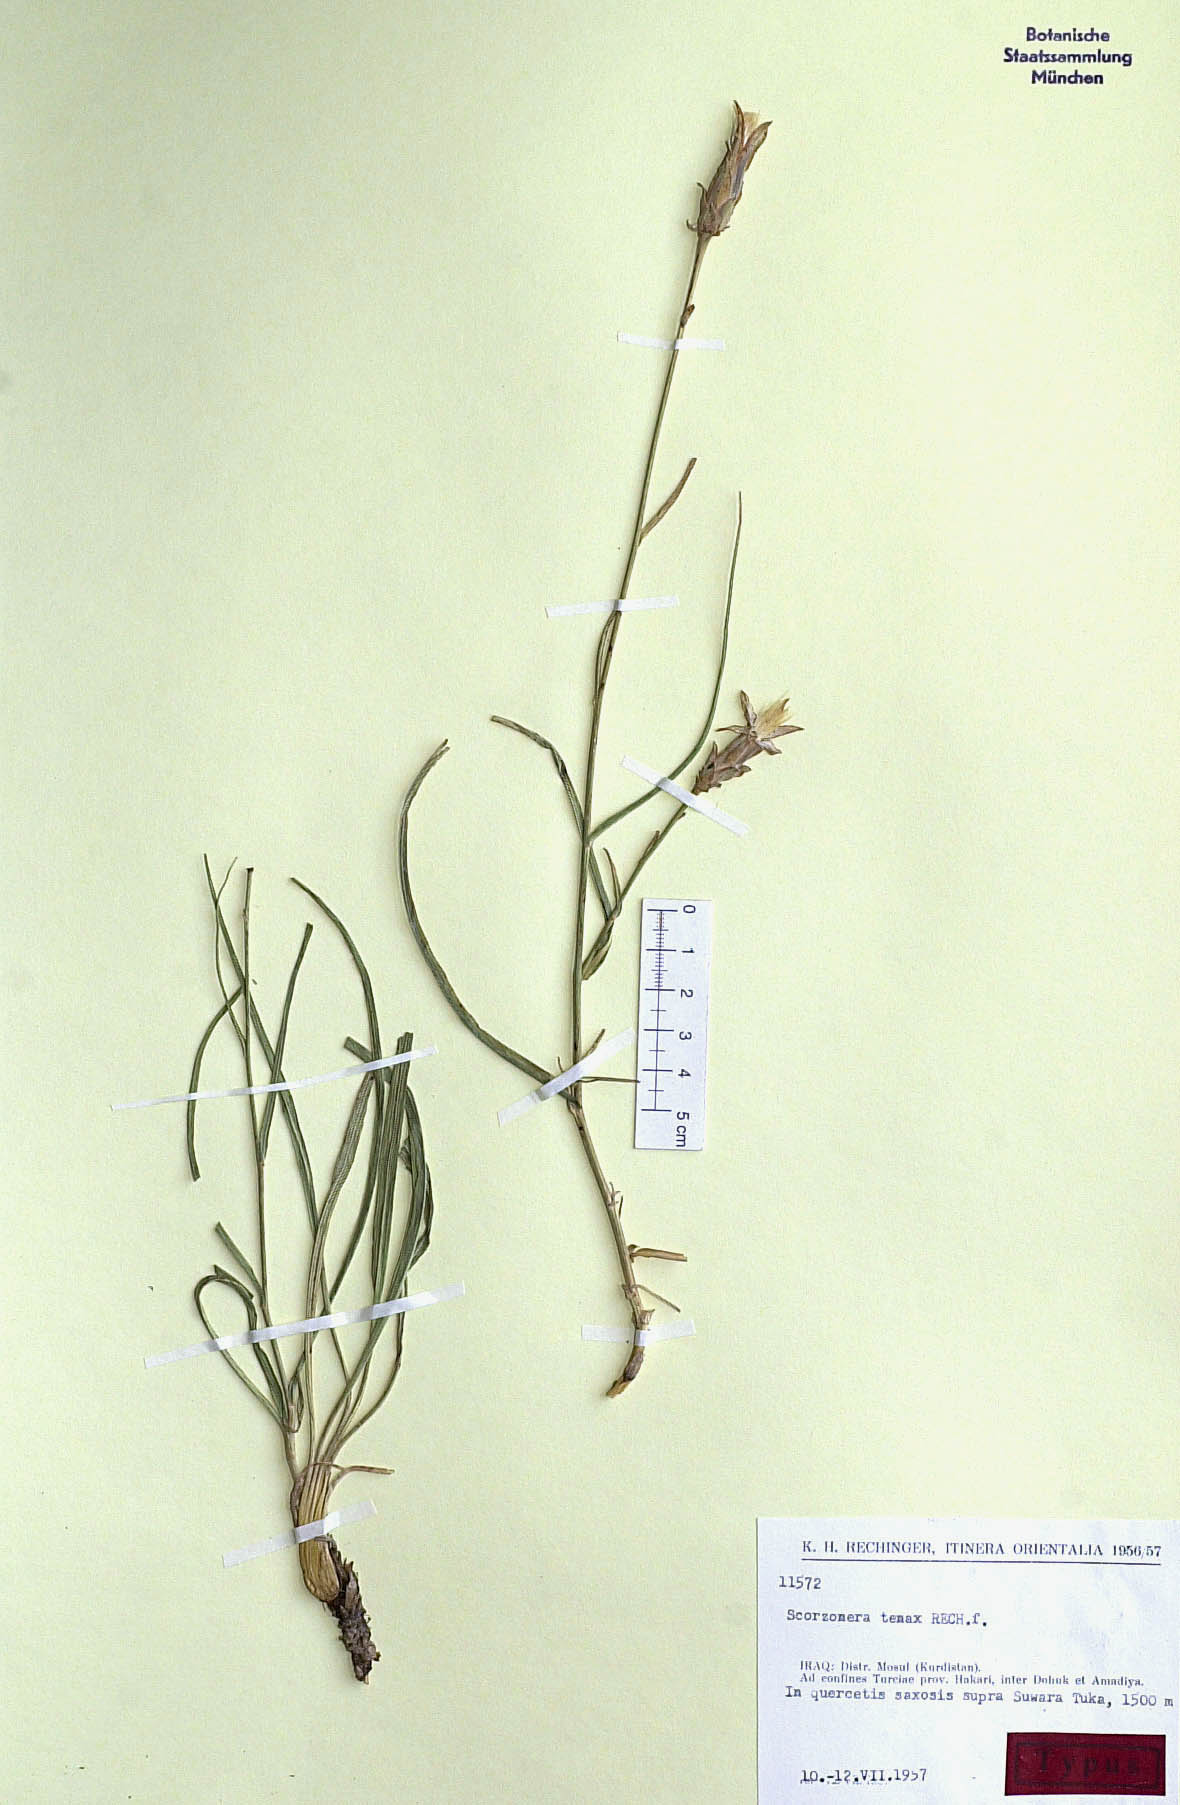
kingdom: Plantae
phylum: Tracheophyta
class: Magnoliopsida
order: Asterales
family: Asteraceae
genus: Candollea
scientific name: Candollea davisii
